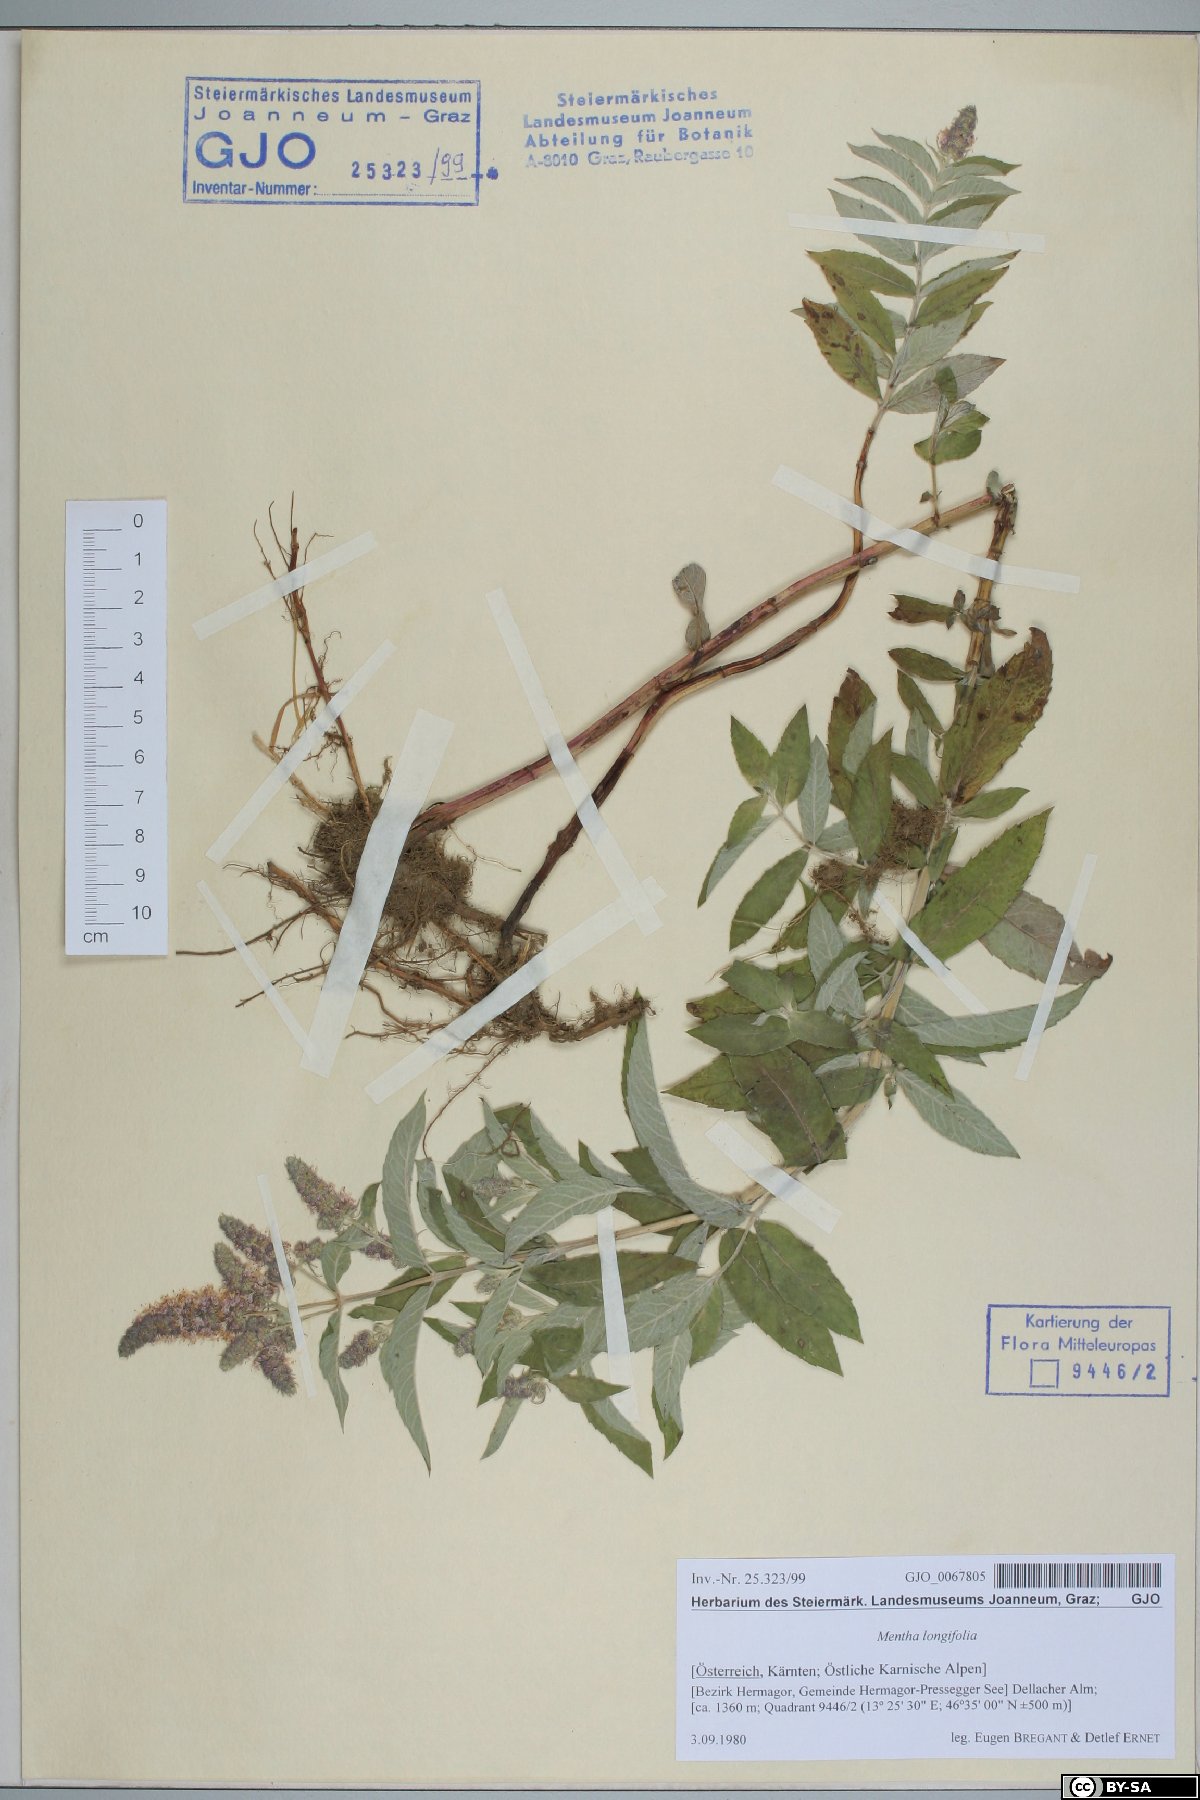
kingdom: Plantae
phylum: Tracheophyta
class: Magnoliopsida
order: Lamiales
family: Lamiaceae
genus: Mentha
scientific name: Mentha longifolia
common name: Horse mint
